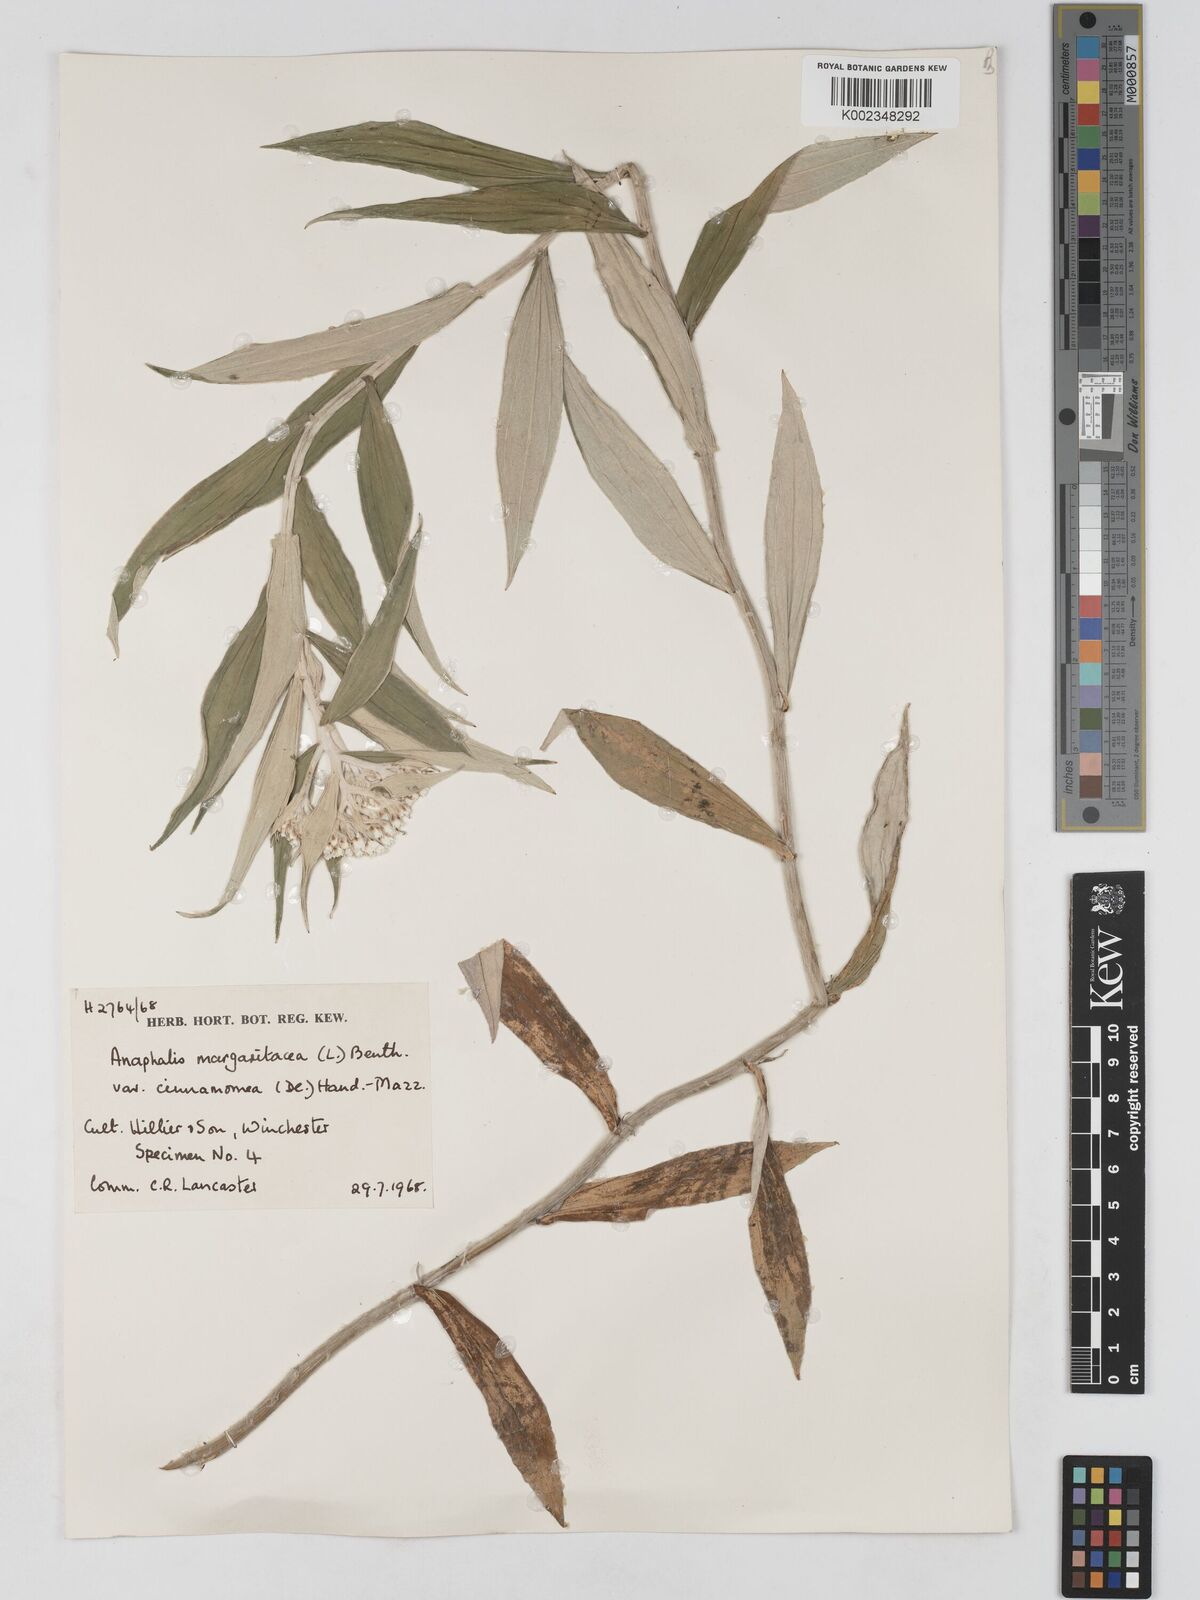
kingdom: Plantae
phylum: Tracheophyta
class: Magnoliopsida
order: Asterales
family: Asteraceae
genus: Anaphalis
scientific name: Anaphalis margaritacea
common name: Pearly everlasting
